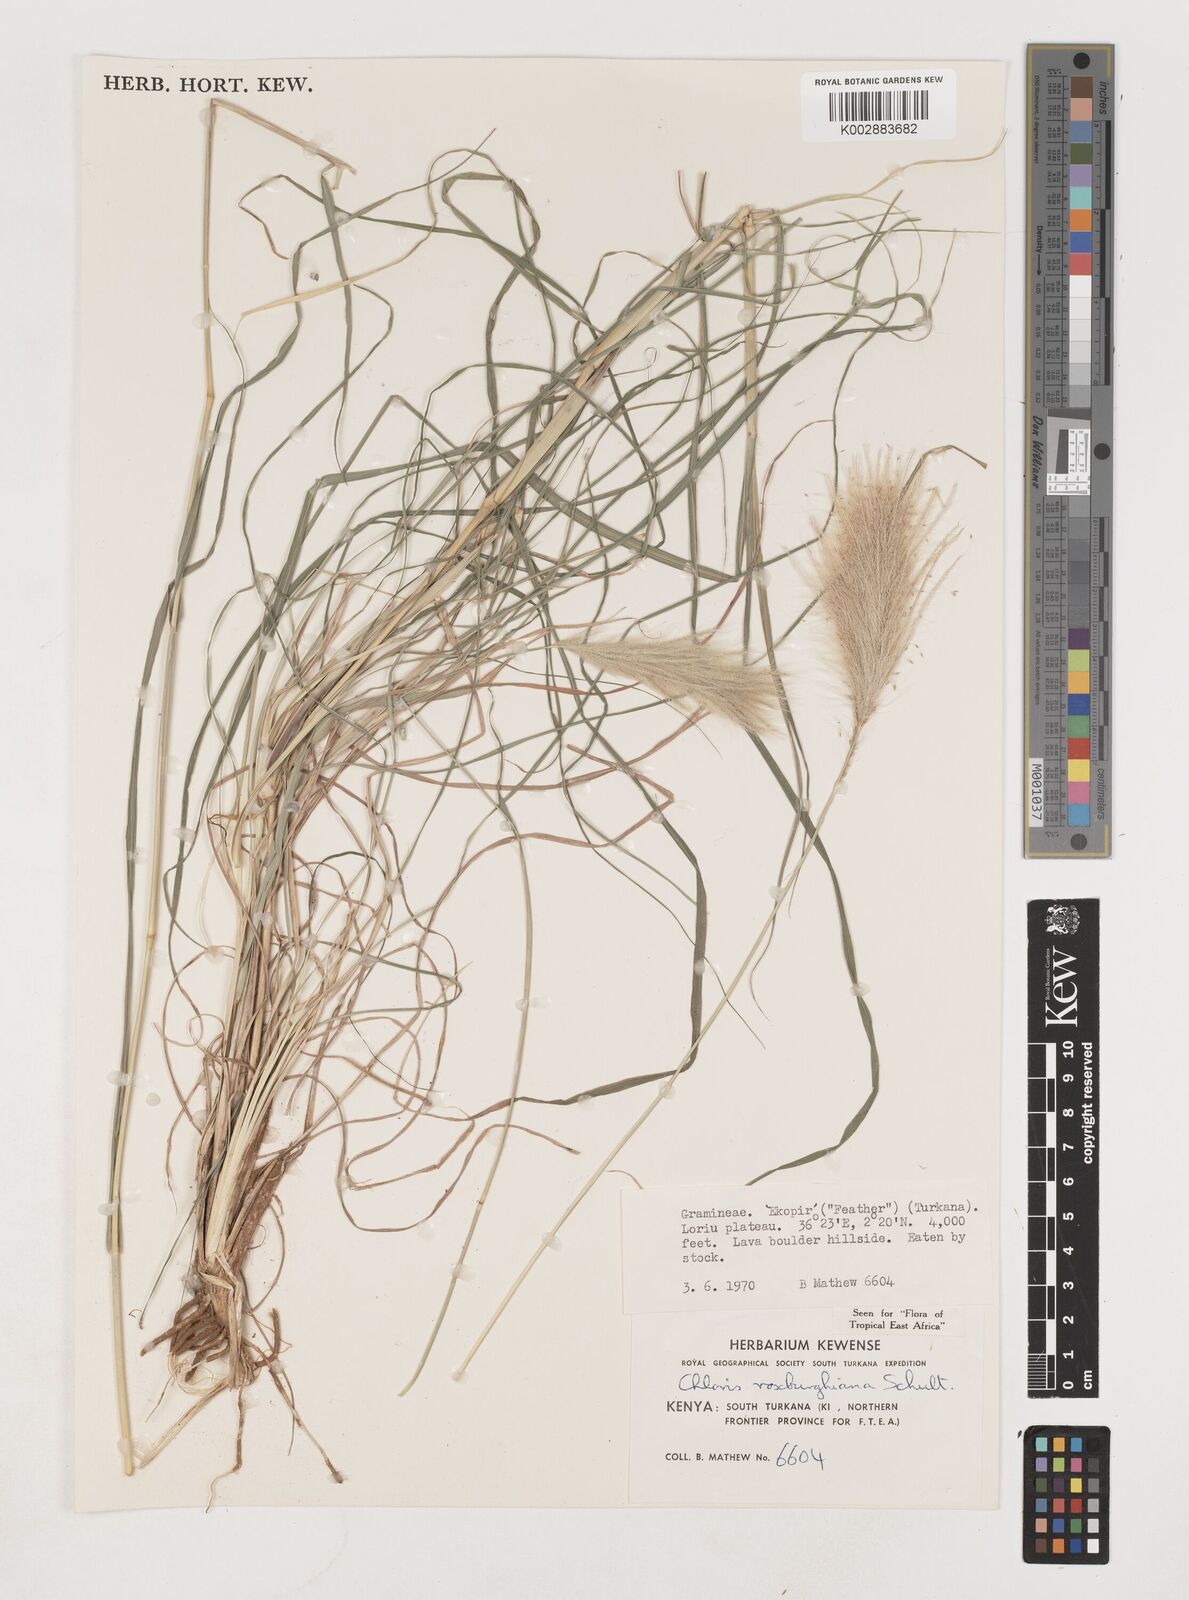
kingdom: Plantae
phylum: Tracheophyta
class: Liliopsida
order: Poales
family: Poaceae
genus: Tetrapogon
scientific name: Tetrapogon roxburghiana
